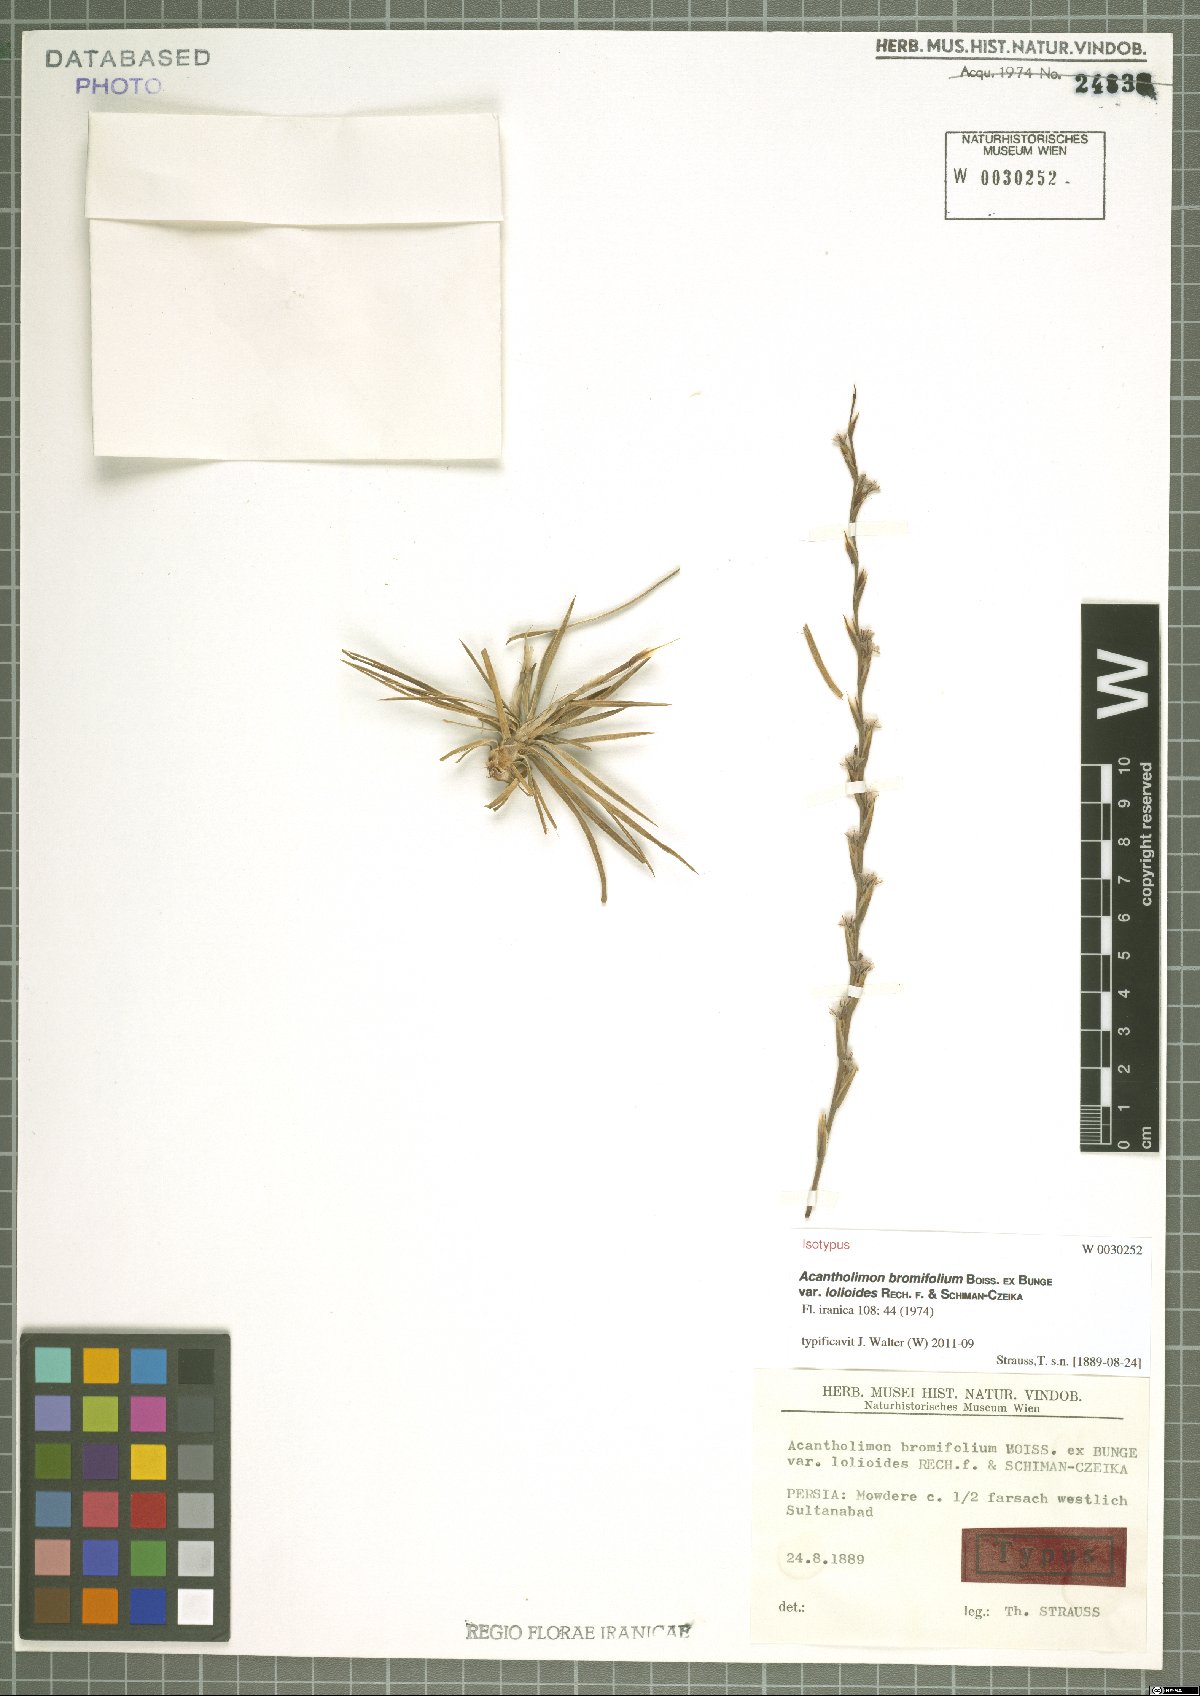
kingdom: Plantae
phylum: Tracheophyta
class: Magnoliopsida
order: Caryophyllales
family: Plumbaginaceae
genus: Acantholimon
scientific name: Acantholimon bromifolium
